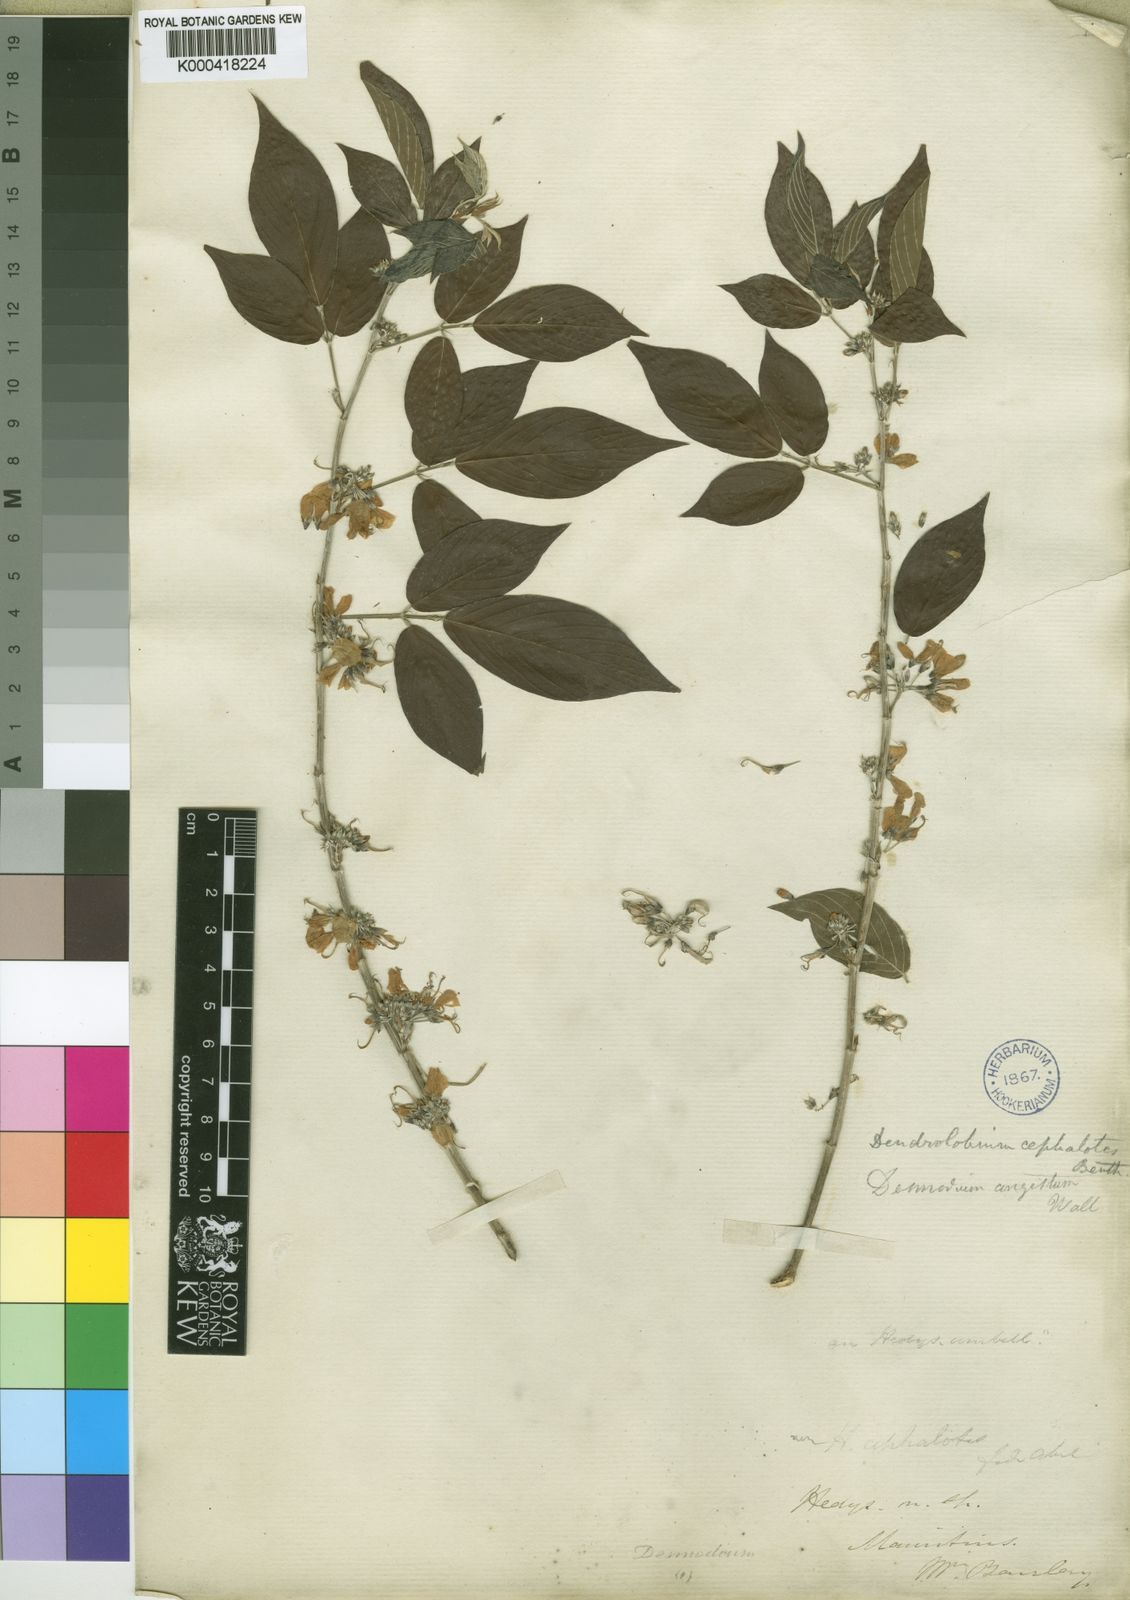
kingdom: Plantae
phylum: Tracheophyta
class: Magnoliopsida
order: Fabales
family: Fabaceae
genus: Dendrolobium
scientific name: Dendrolobium triangulare
